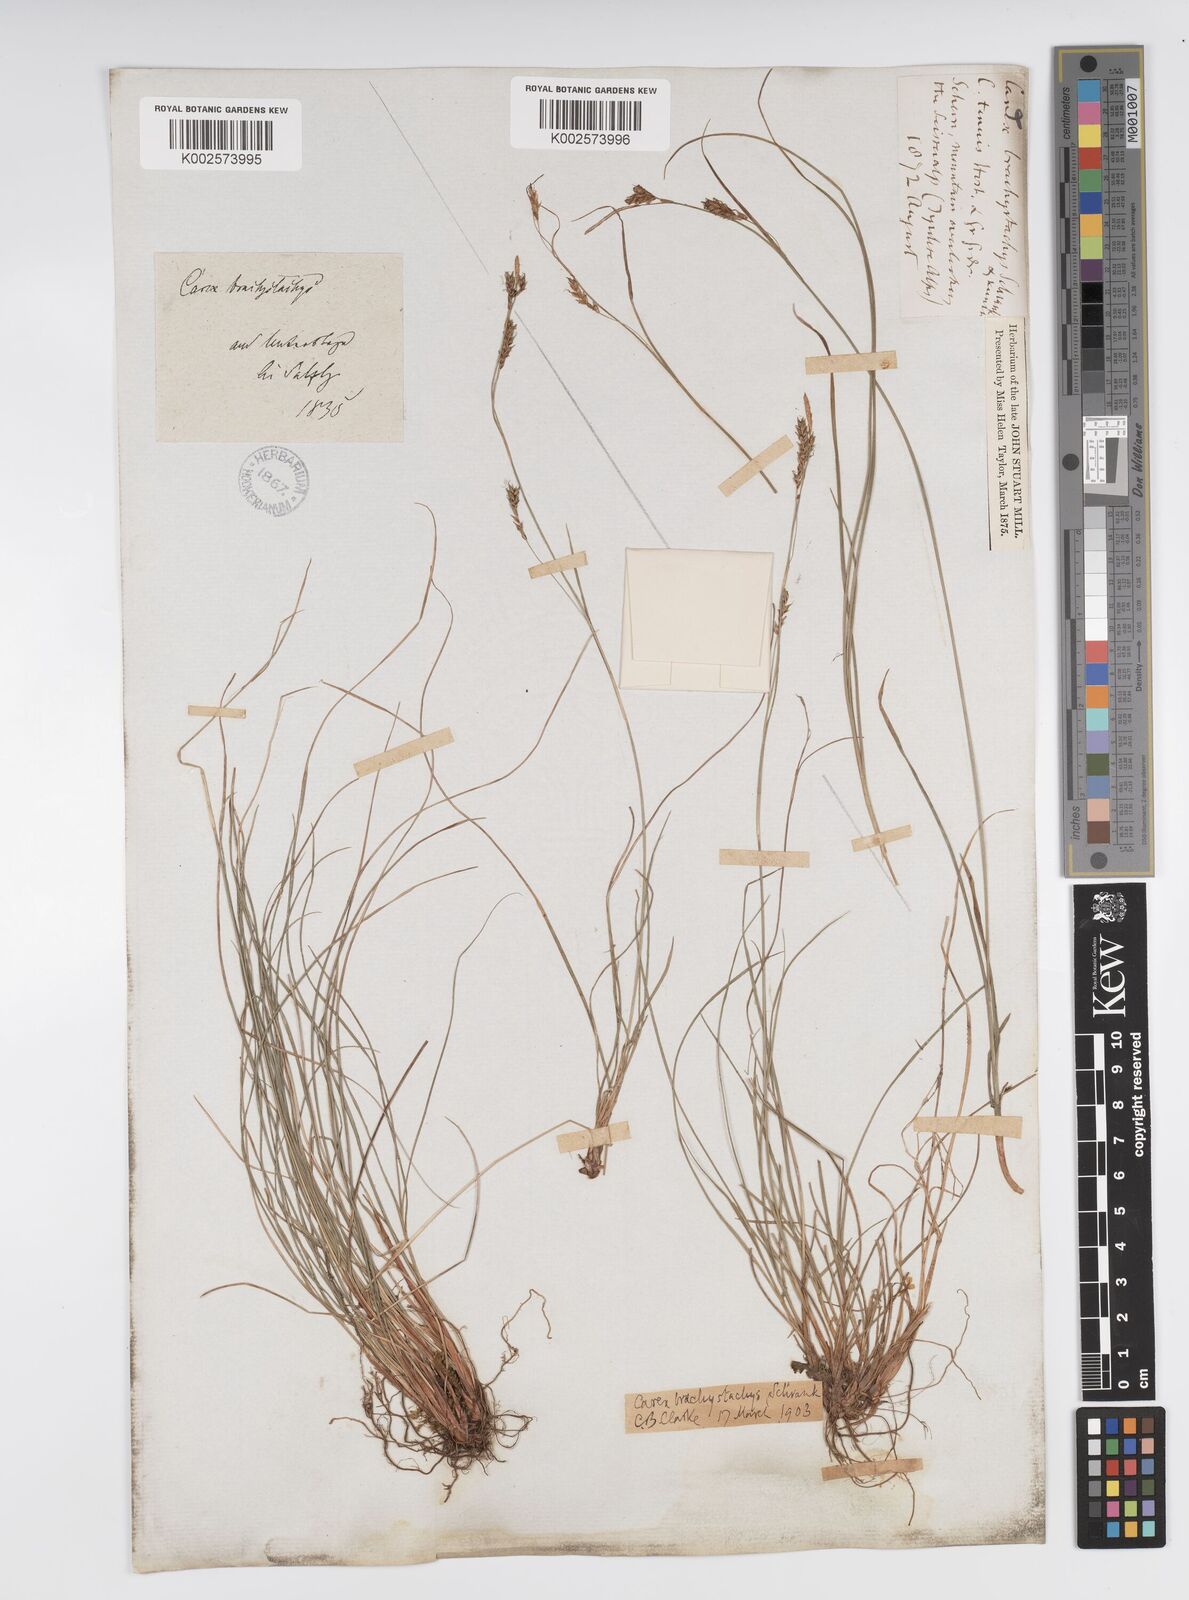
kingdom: Plantae
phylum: Tracheophyta
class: Liliopsida
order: Poales
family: Cyperaceae
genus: Carex
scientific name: Carex brachystachys
